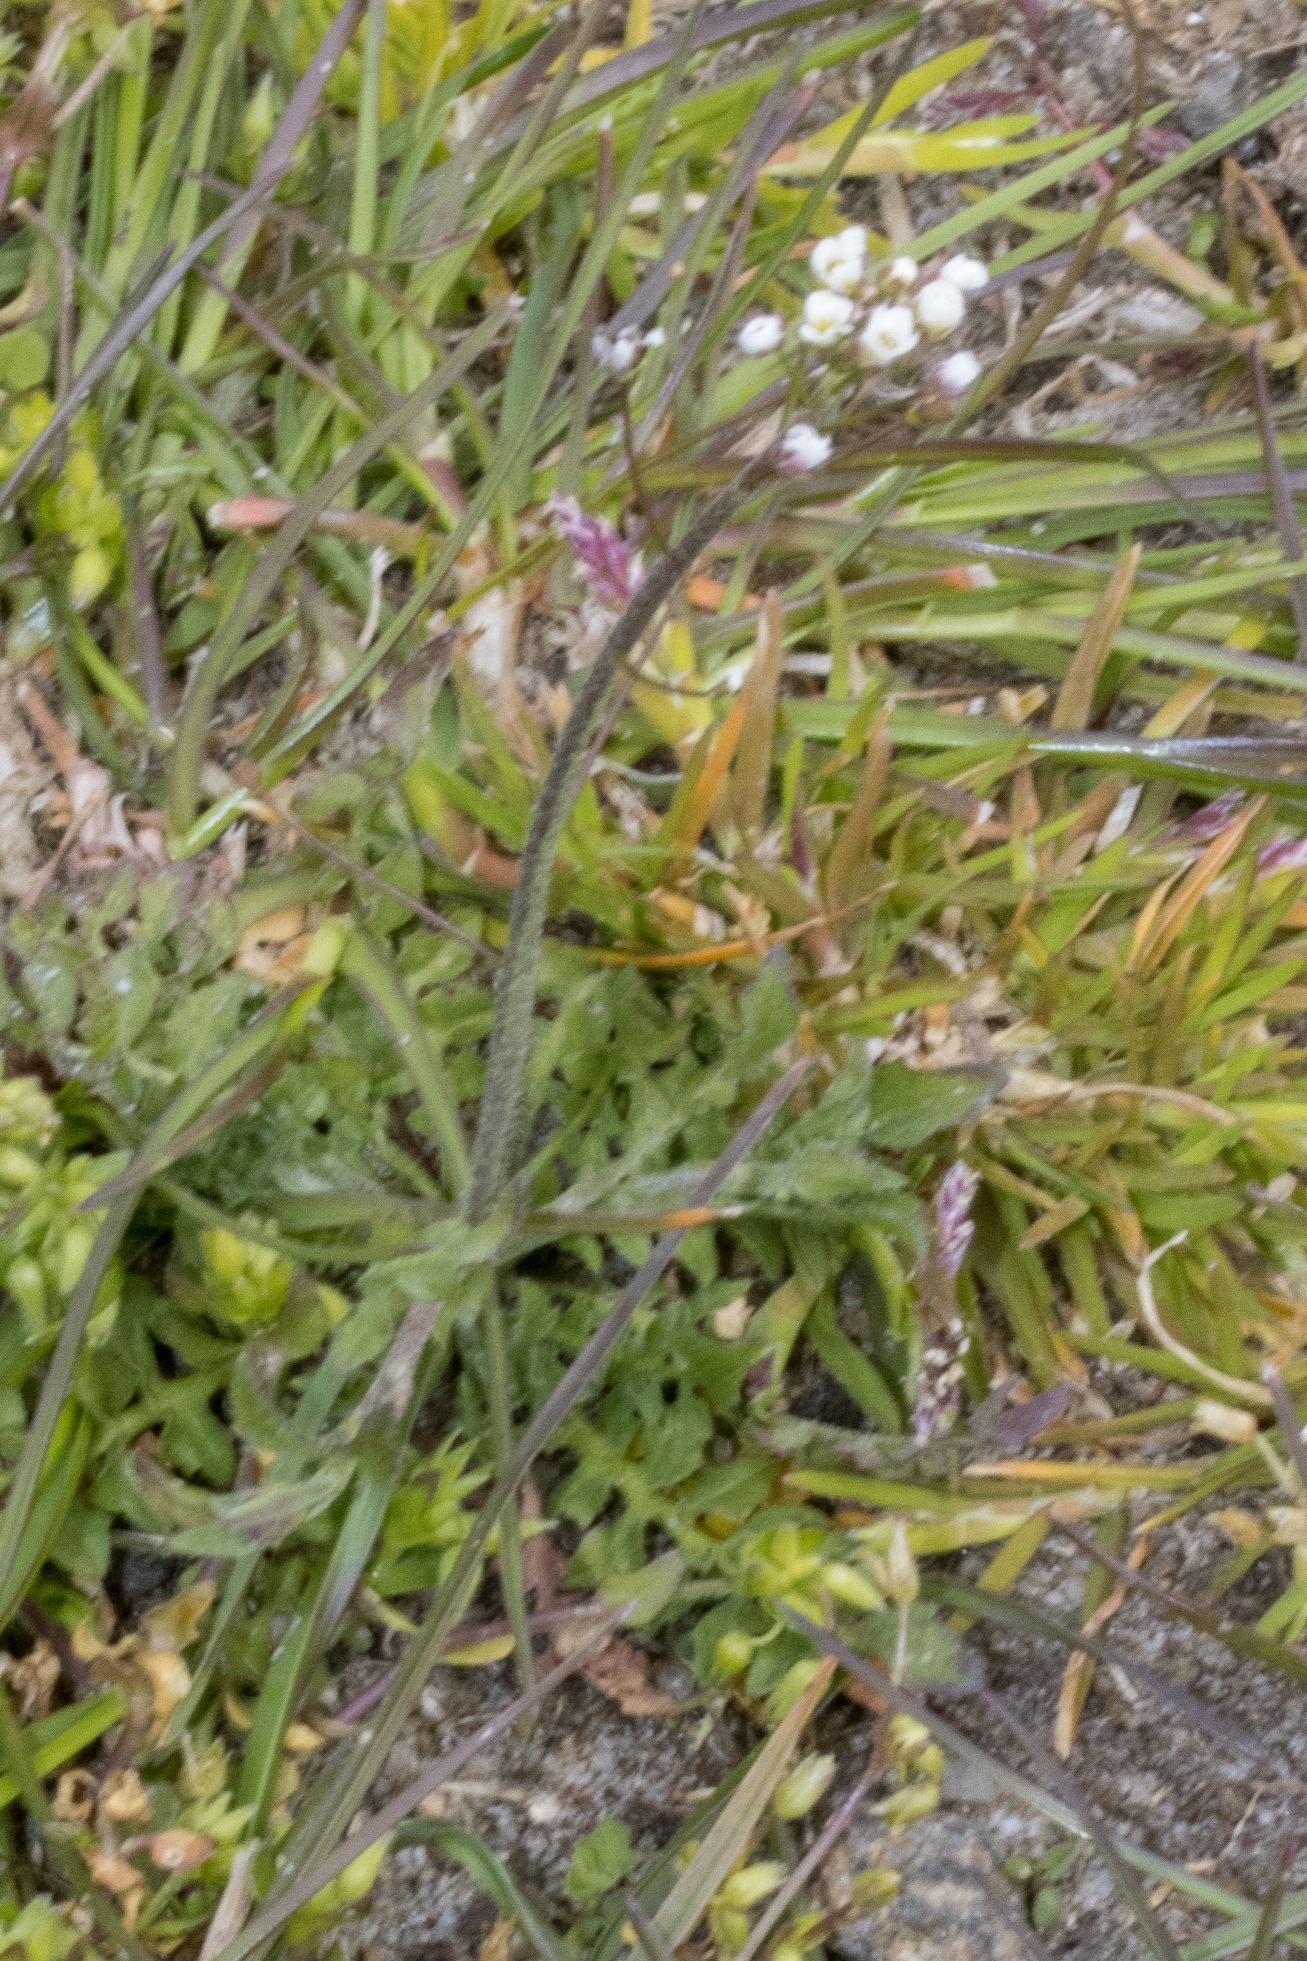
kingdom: Plantae
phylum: Tracheophyta
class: Magnoliopsida
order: Brassicales
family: Brassicaceae
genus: Capsella
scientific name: Capsella bursa-pastoris
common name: Hyrdetaske
